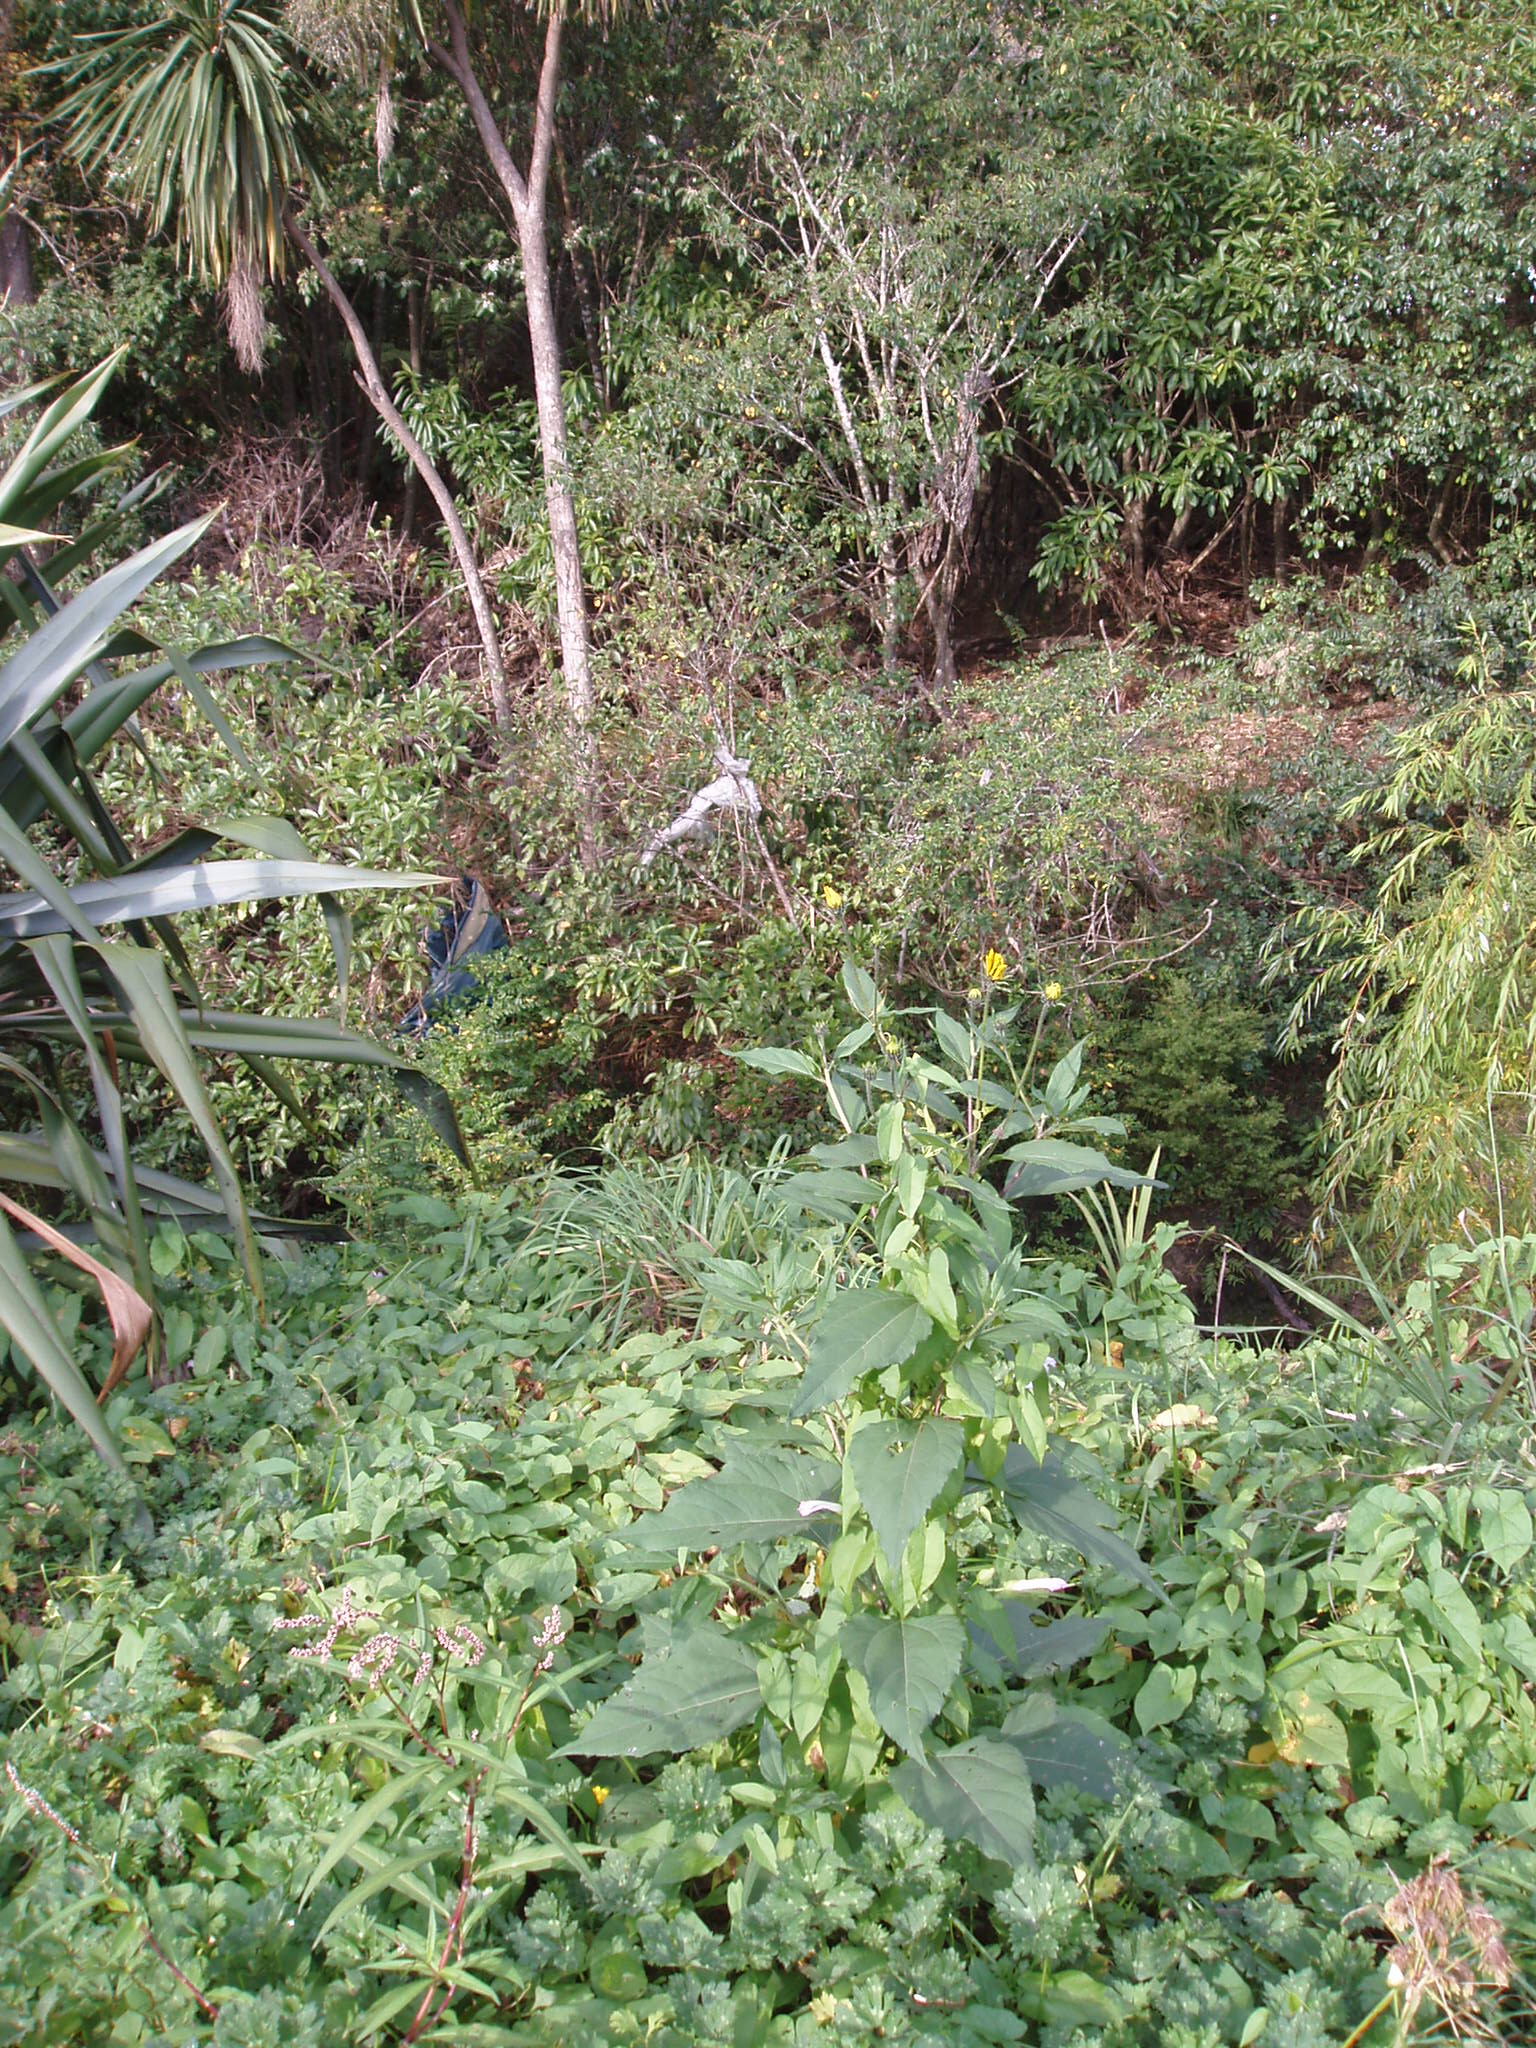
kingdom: Plantae
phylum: Tracheophyta
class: Magnoliopsida
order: Asterales
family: Asteraceae
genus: Helianthus
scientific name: Helianthus tuberosus
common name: Jerusalem artichoke
